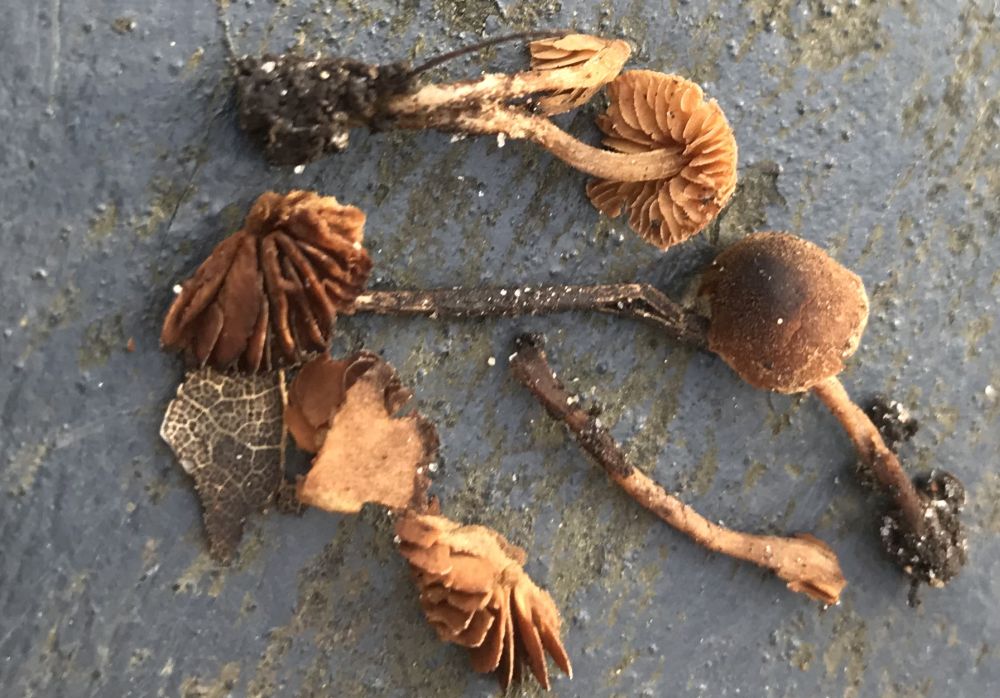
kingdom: Fungi
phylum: Basidiomycota
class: Agaricomycetes
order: Agaricales
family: Tubariaceae
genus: Flammulaster
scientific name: Flammulaster granulosus
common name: gulbrun grynskælhat
